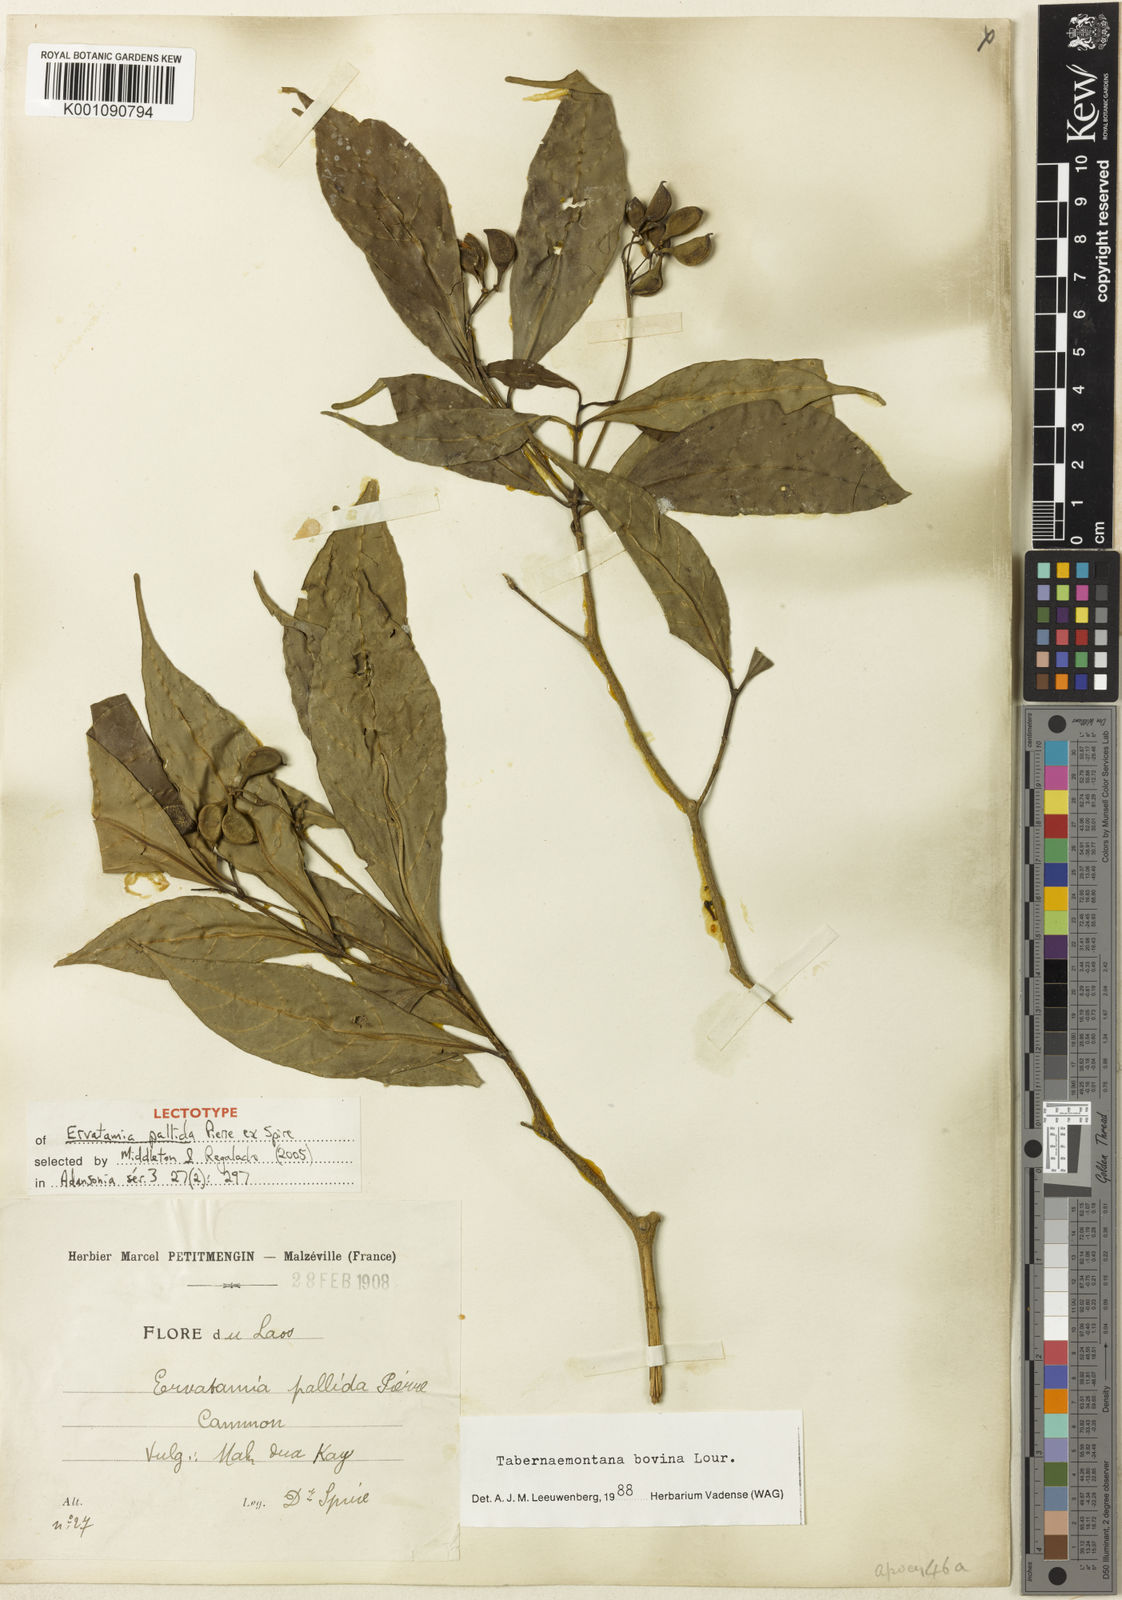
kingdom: Plantae
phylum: Tracheophyta
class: Magnoliopsida
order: Gentianales
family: Apocynaceae
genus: Tabernaemontana
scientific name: Tabernaemontana bovina
